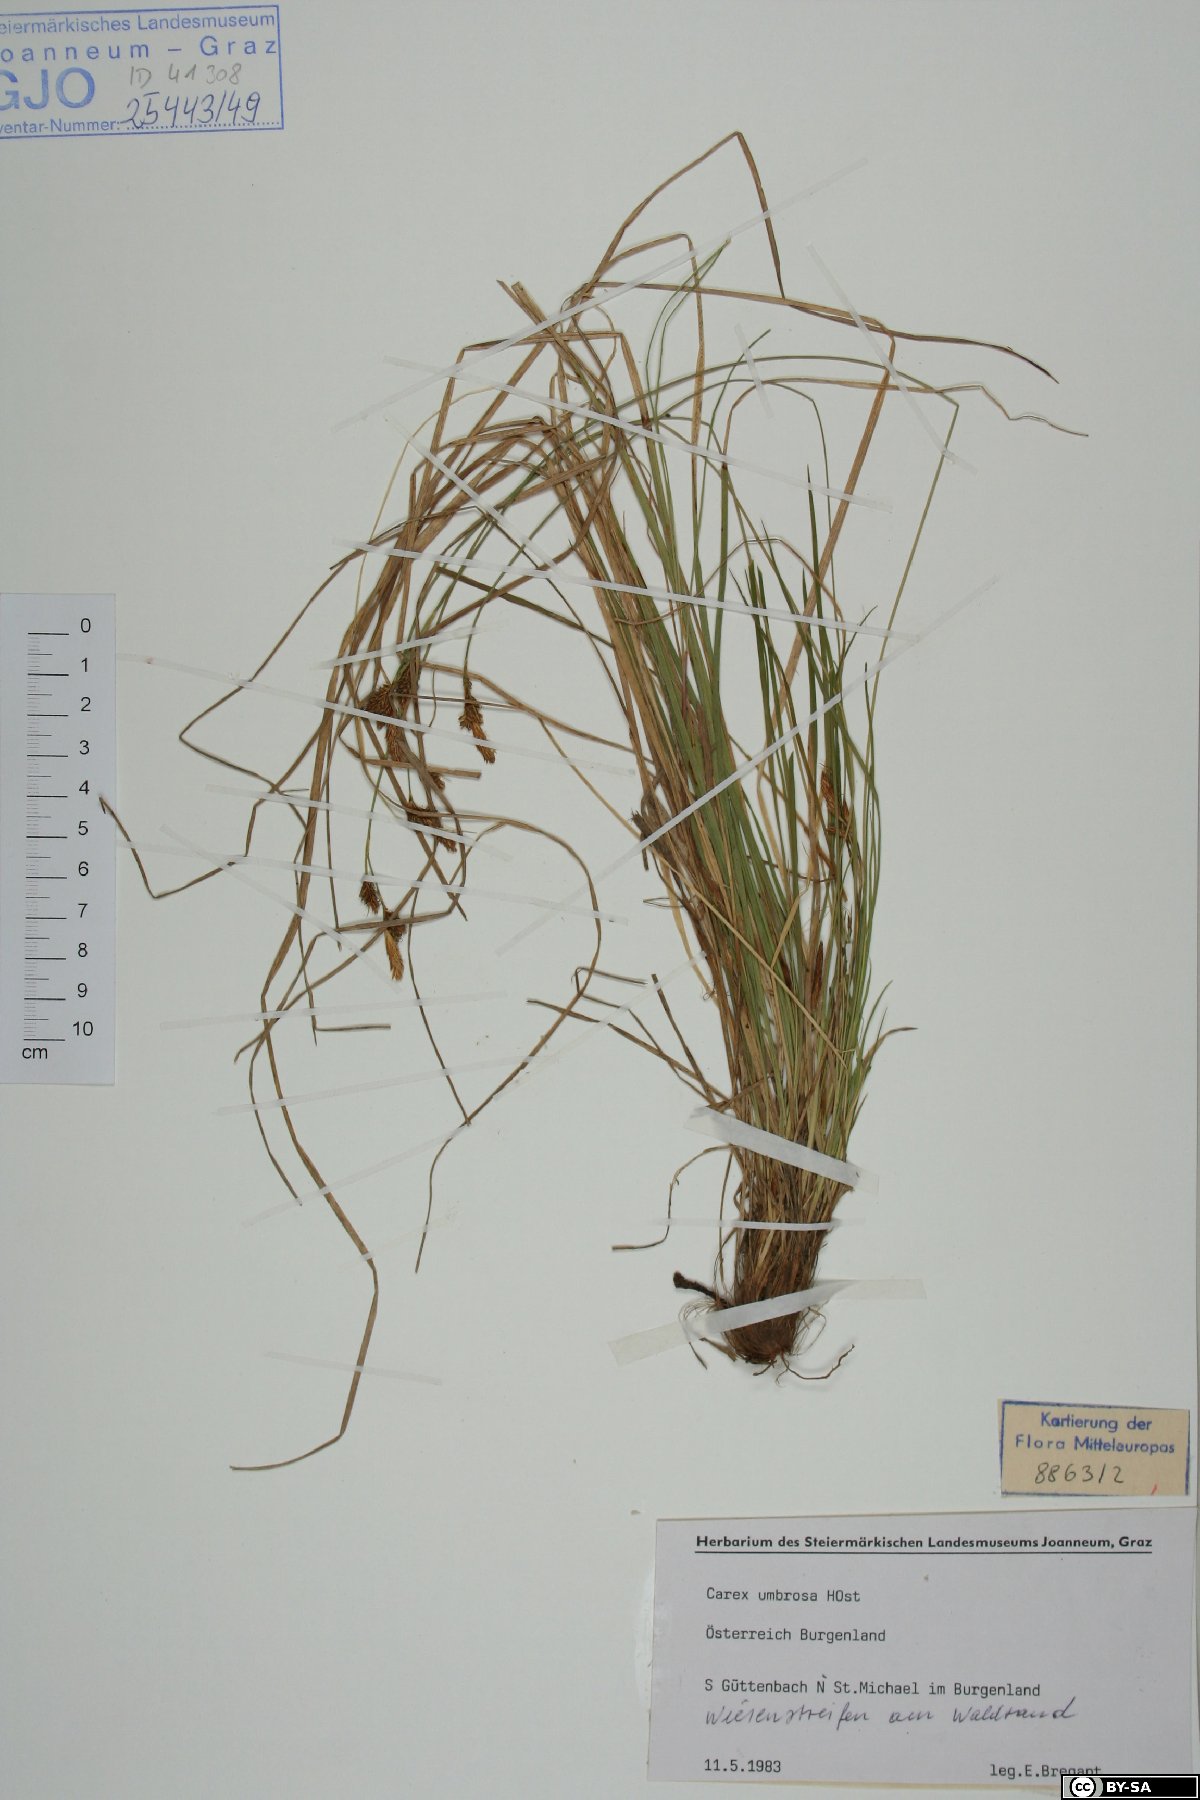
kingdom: Plantae
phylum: Tracheophyta
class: Liliopsida
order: Poales
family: Cyperaceae
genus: Carex
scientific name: Carex umbrosa
